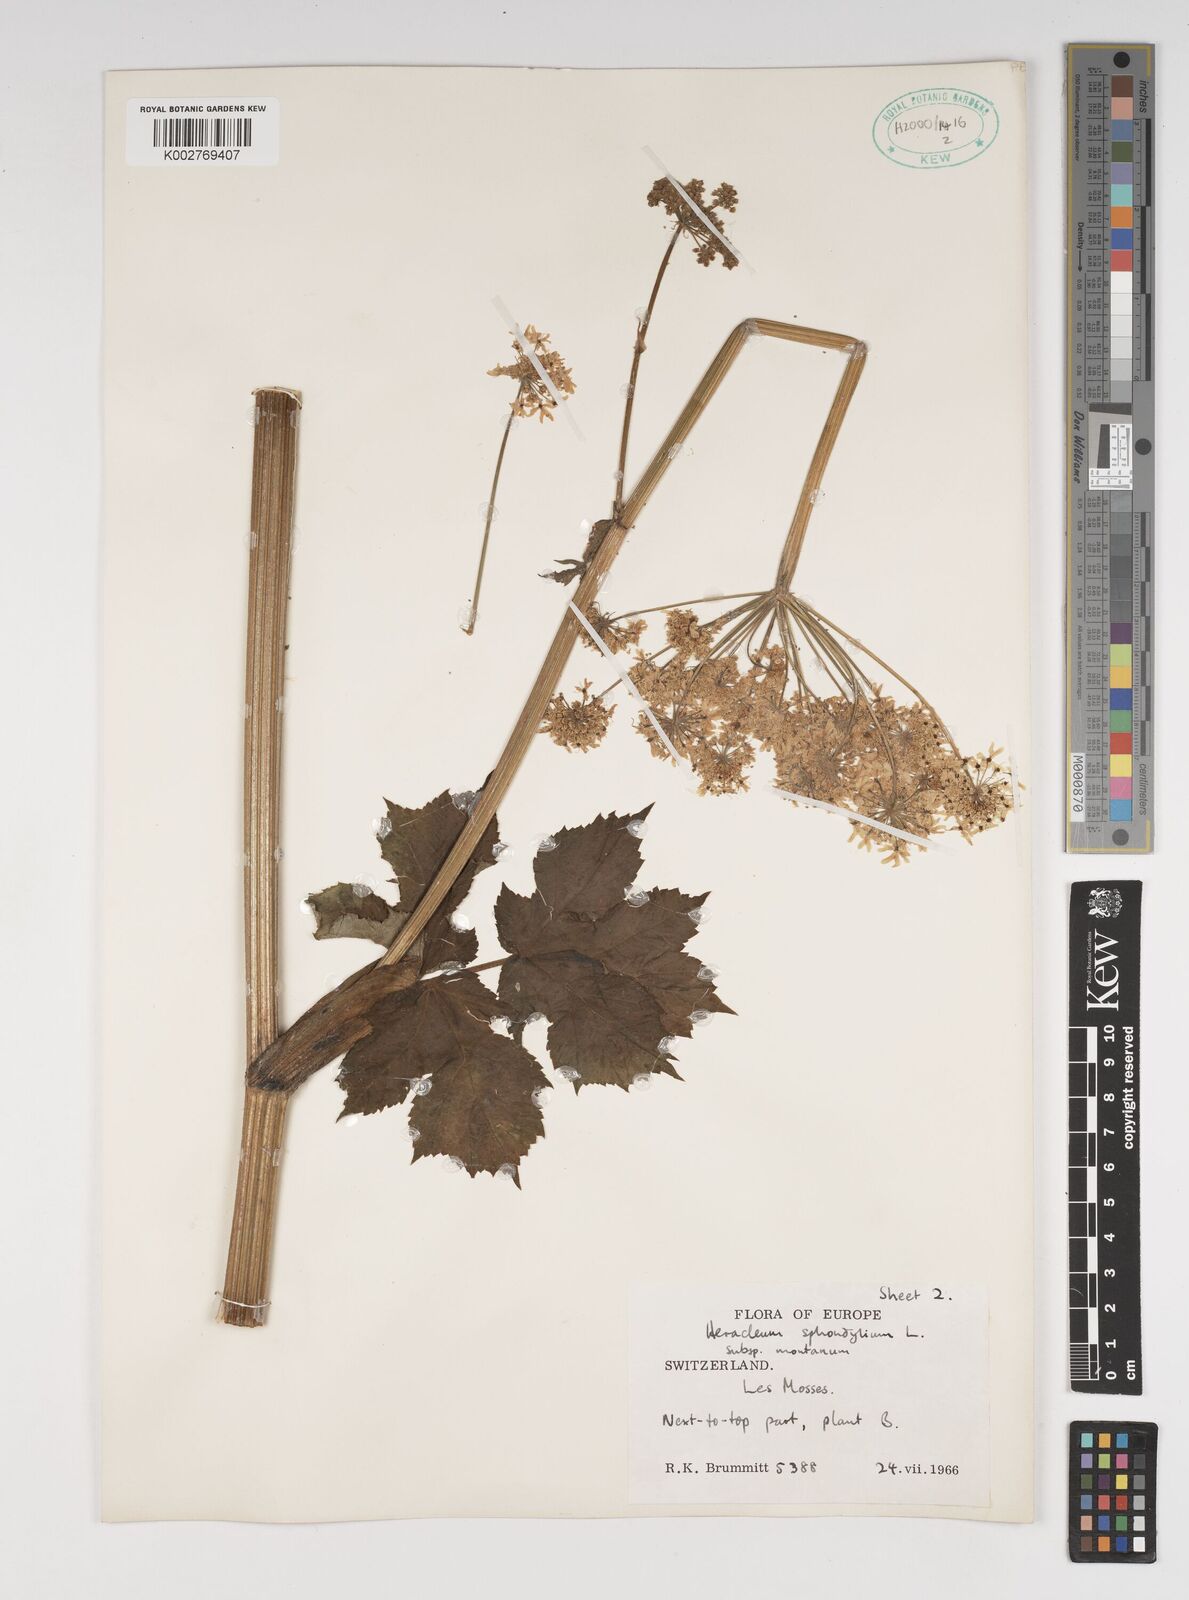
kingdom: Plantae
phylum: Tracheophyta
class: Magnoliopsida
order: Apiales
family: Apiaceae
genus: Heracleum
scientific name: Heracleum sphondylium
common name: Hogweed
